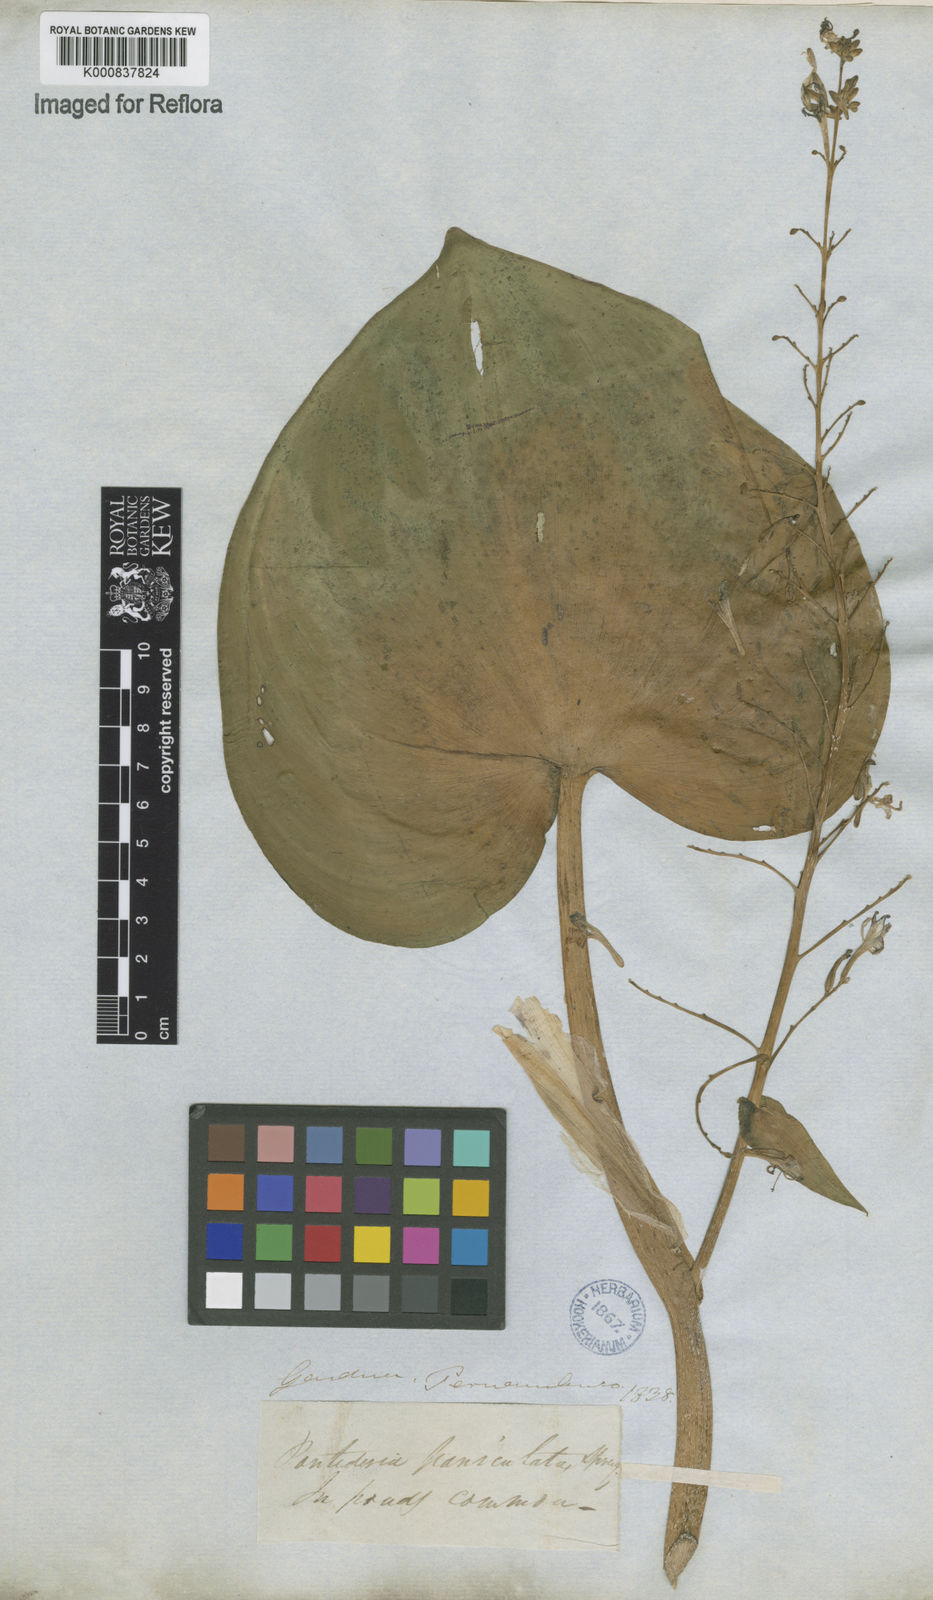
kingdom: Plantae
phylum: Tracheophyta
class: Liliopsida
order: Commelinales
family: Pontederiaceae
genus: Pontederia
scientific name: Pontederia paniculata
